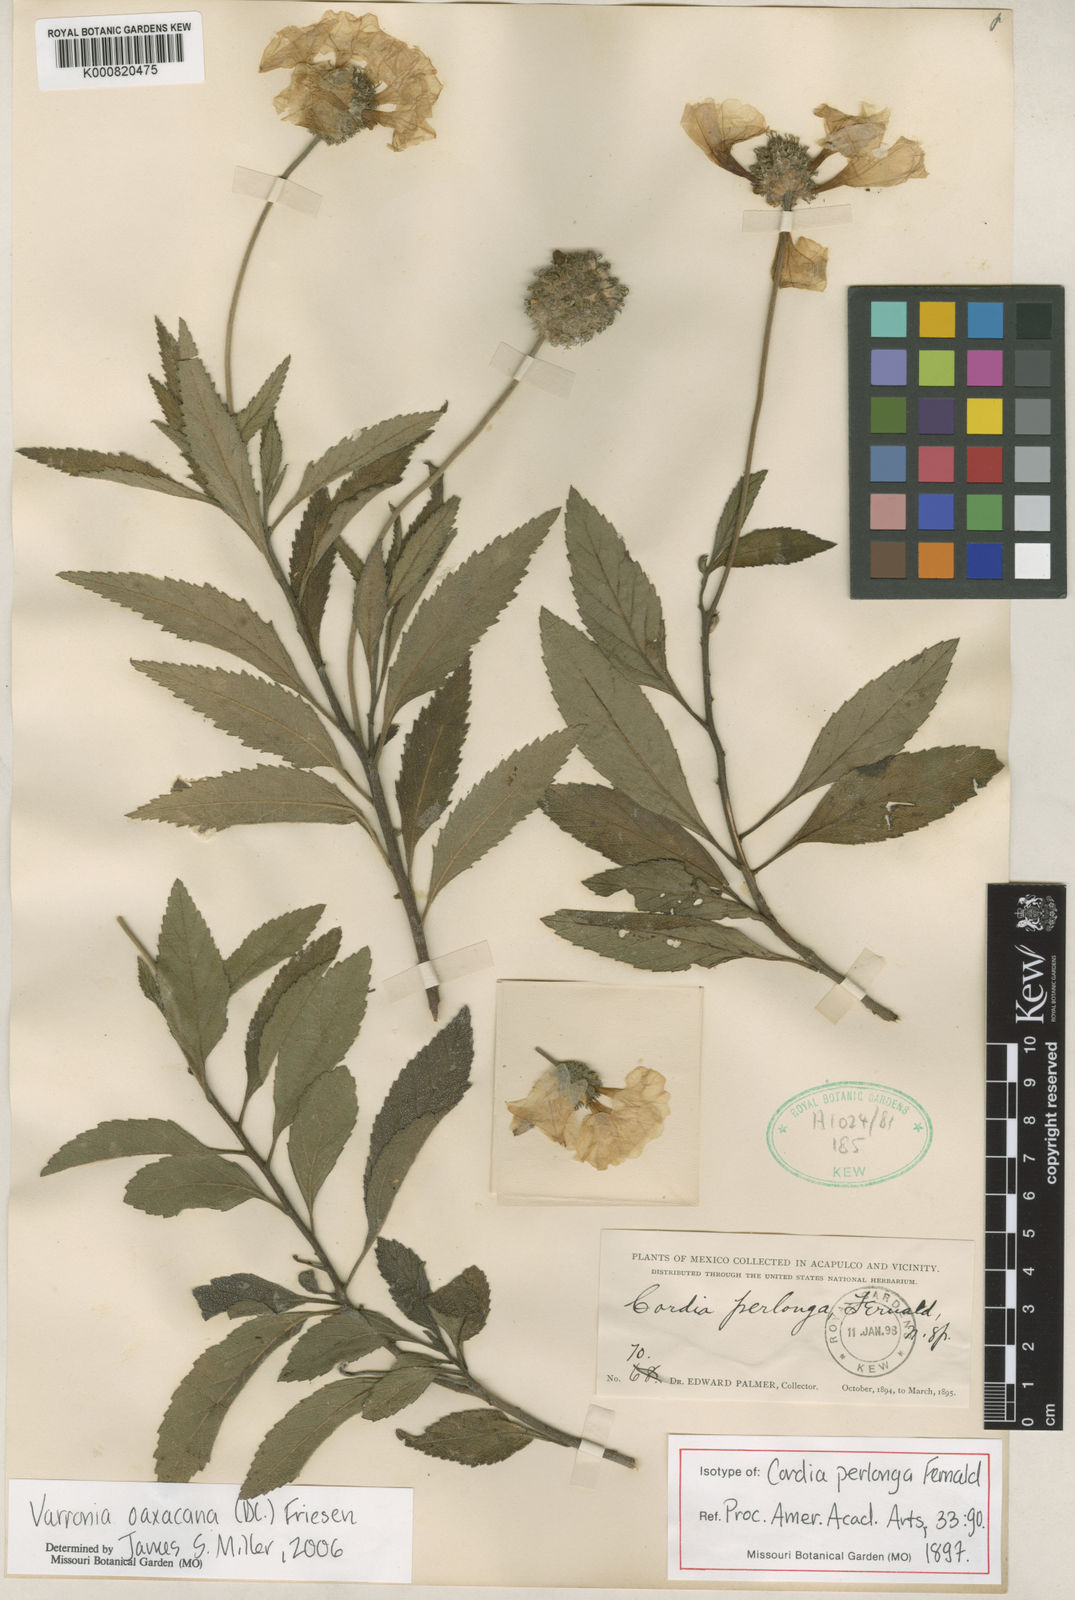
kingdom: Plantae
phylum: Tracheophyta
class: Magnoliopsida
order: Boraginales
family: Cordiaceae
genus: Varronia
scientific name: Varronia oaxacana
